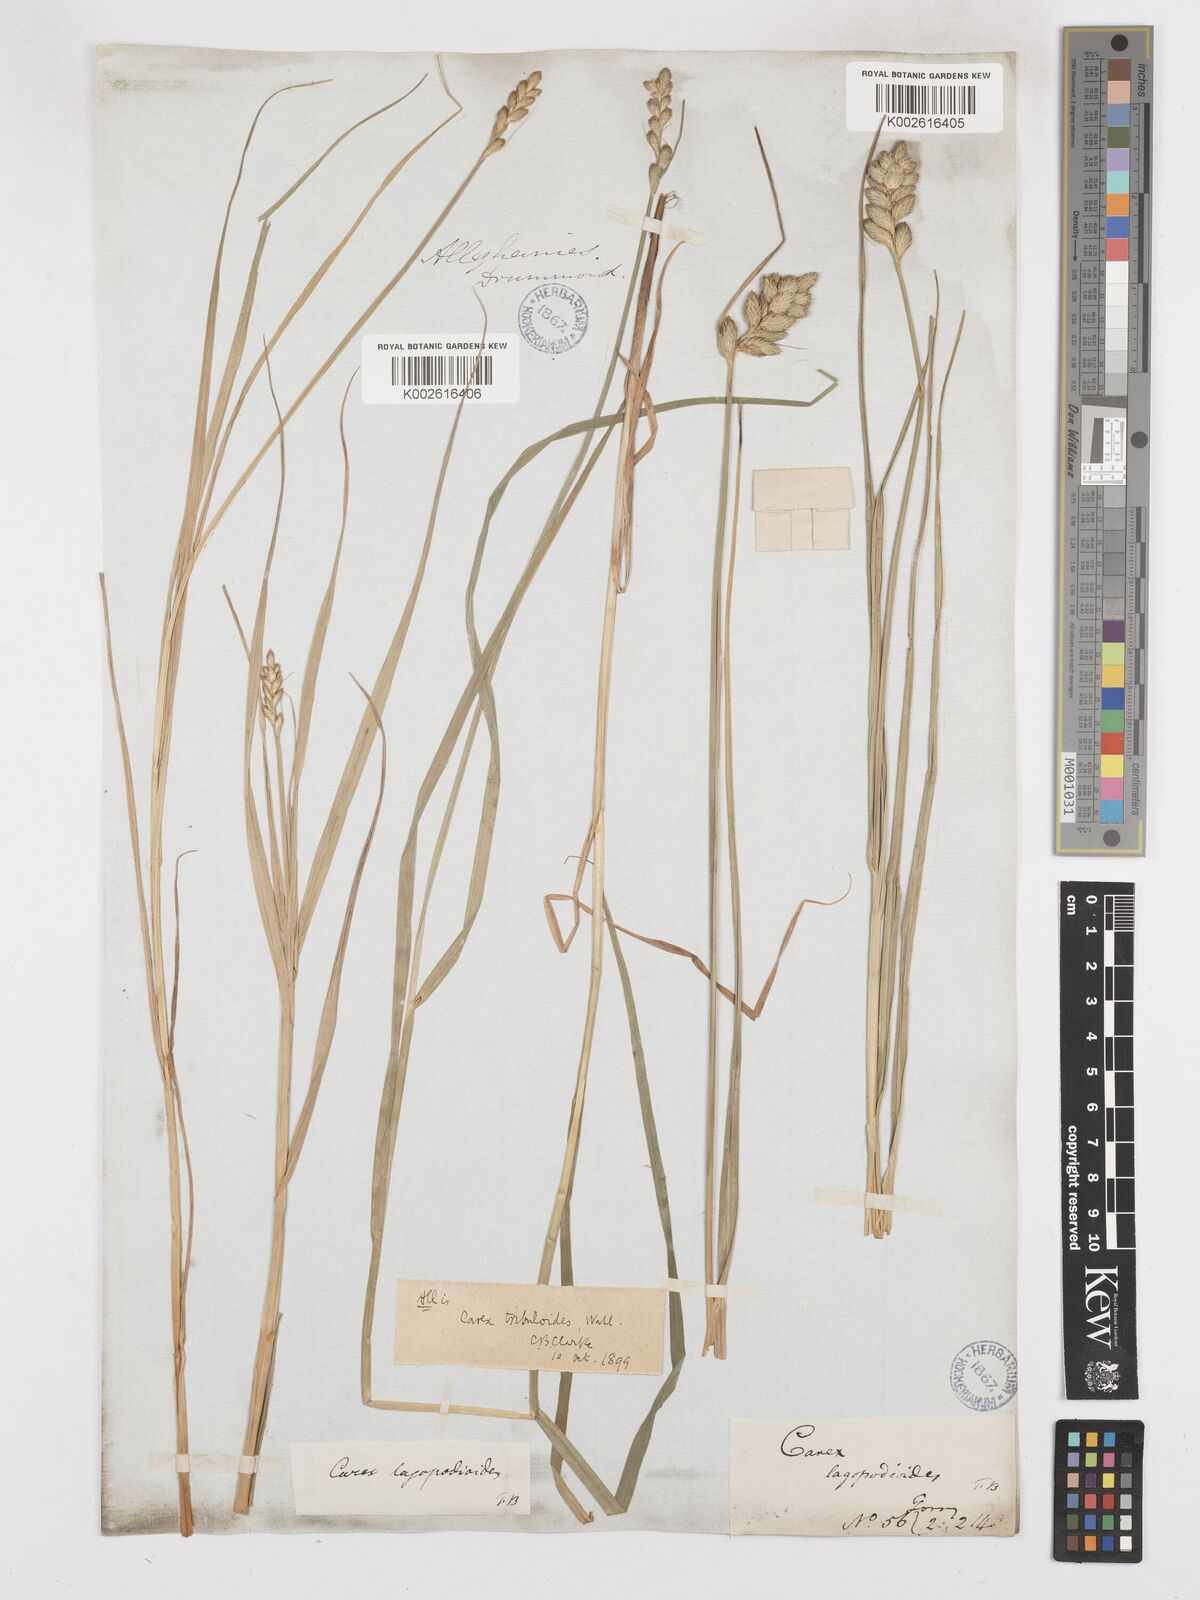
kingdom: Plantae
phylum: Tracheophyta
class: Liliopsida
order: Poales
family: Cyperaceae
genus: Carex
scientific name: Carex tribuloides
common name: Blunt broom sedge
